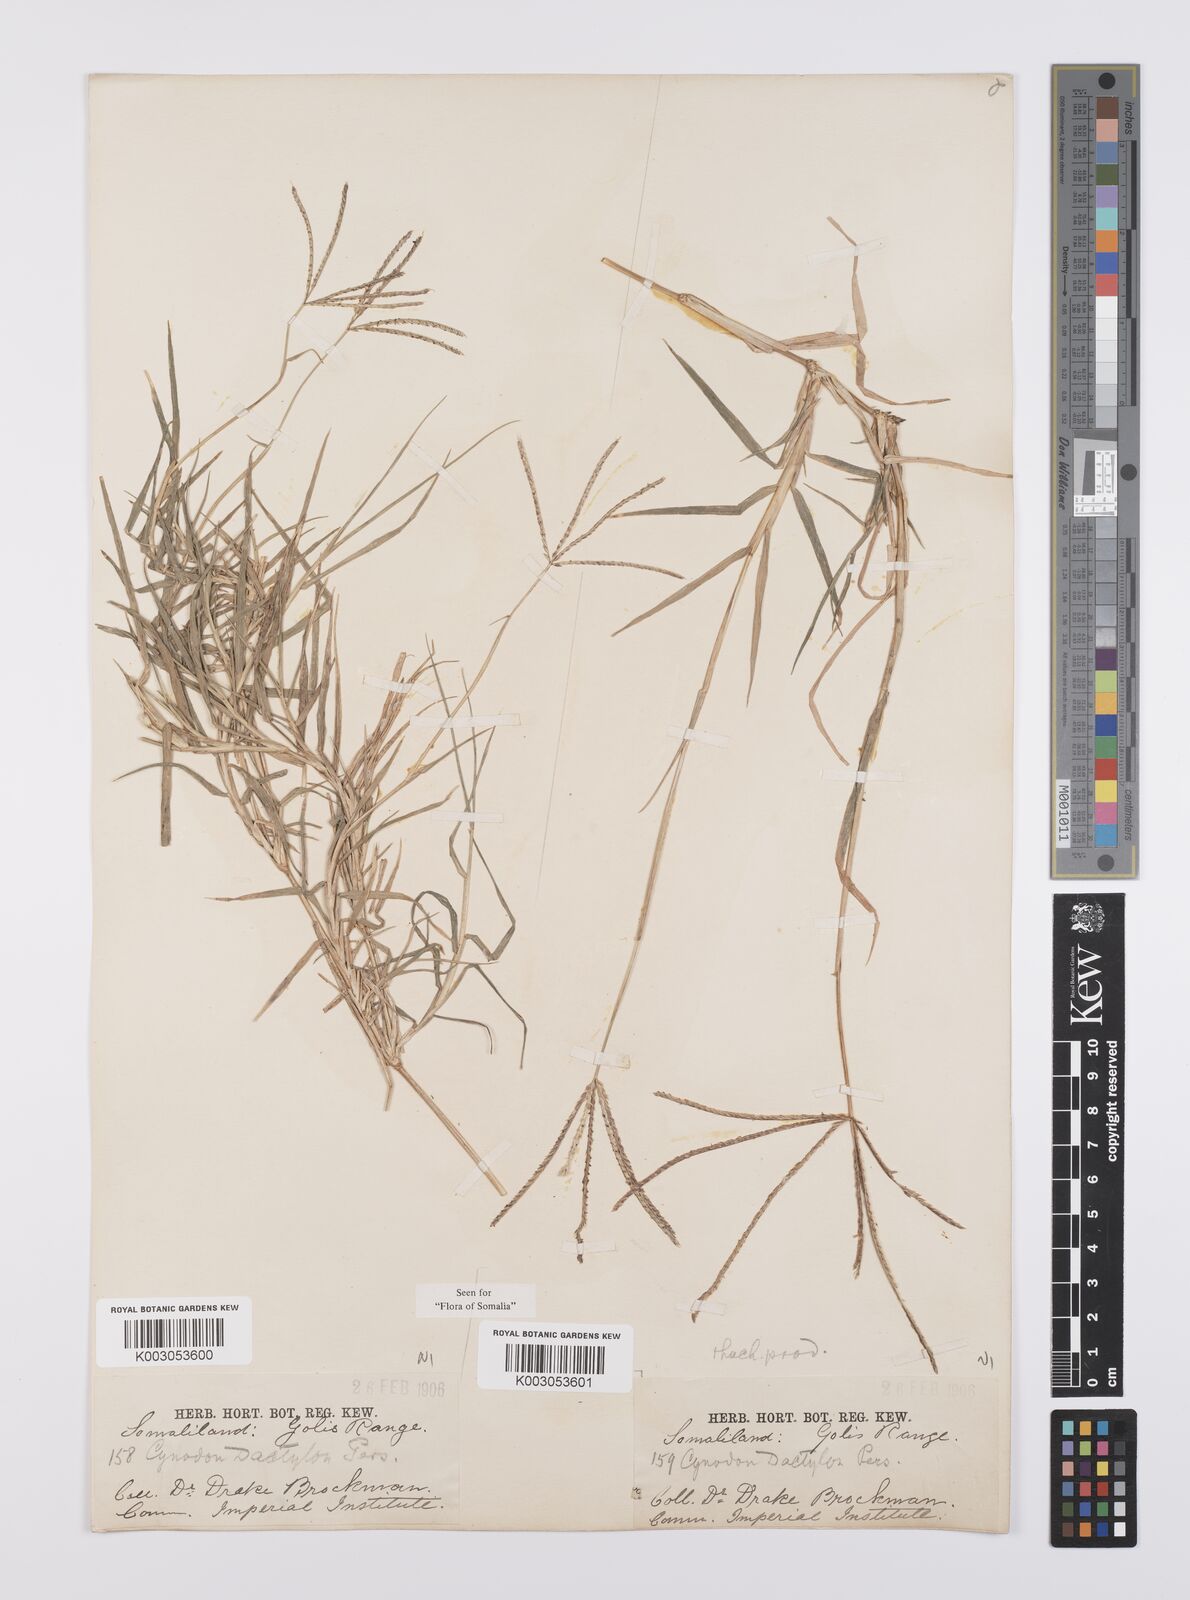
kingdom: Plantae
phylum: Tracheophyta
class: Liliopsida
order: Poales
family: Poaceae
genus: Cynodon
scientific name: Cynodon dactylon
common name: Bermuda grass
